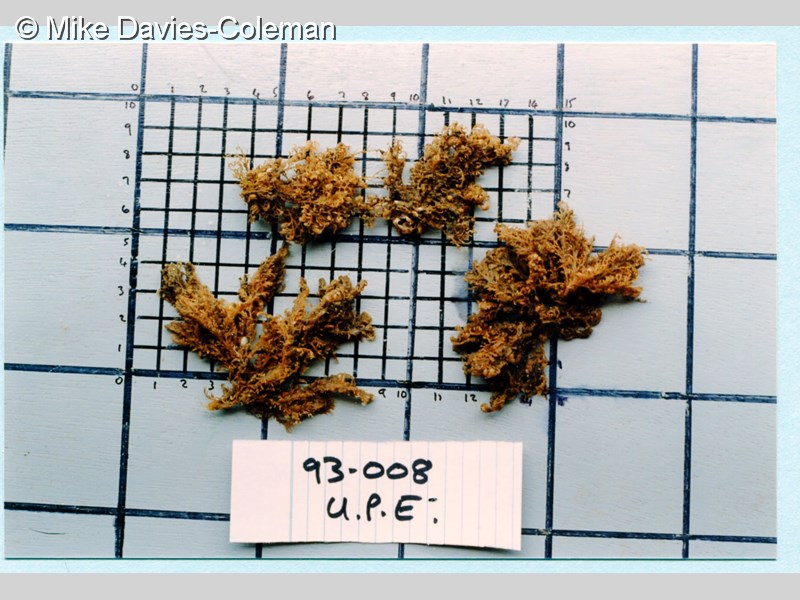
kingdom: Animalia
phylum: Cnidaria
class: Hydrozoa
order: Leptothecata
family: Sertularellidae
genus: Sertularella
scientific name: Sertularella arbuscula
